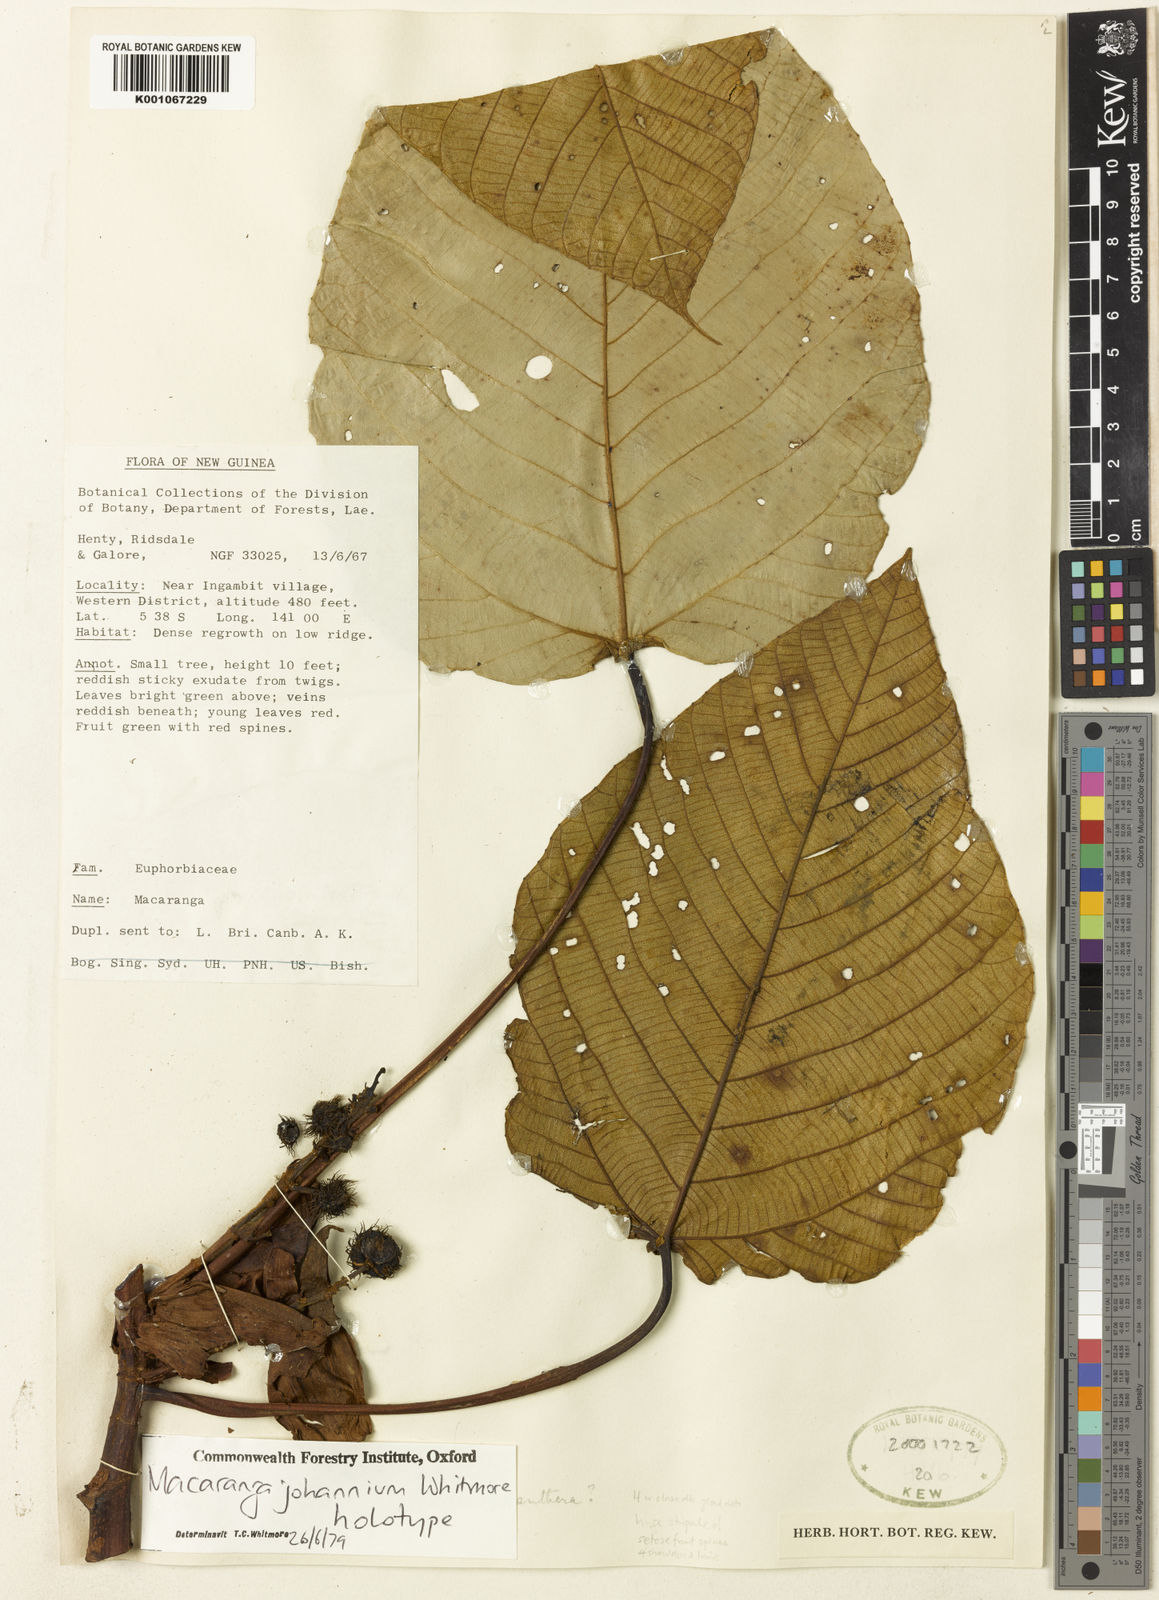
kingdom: Plantae
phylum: Tracheophyta
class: Magnoliopsida
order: Malpighiales
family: Euphorbiaceae
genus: Macaranga
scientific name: Macaranga johannium
